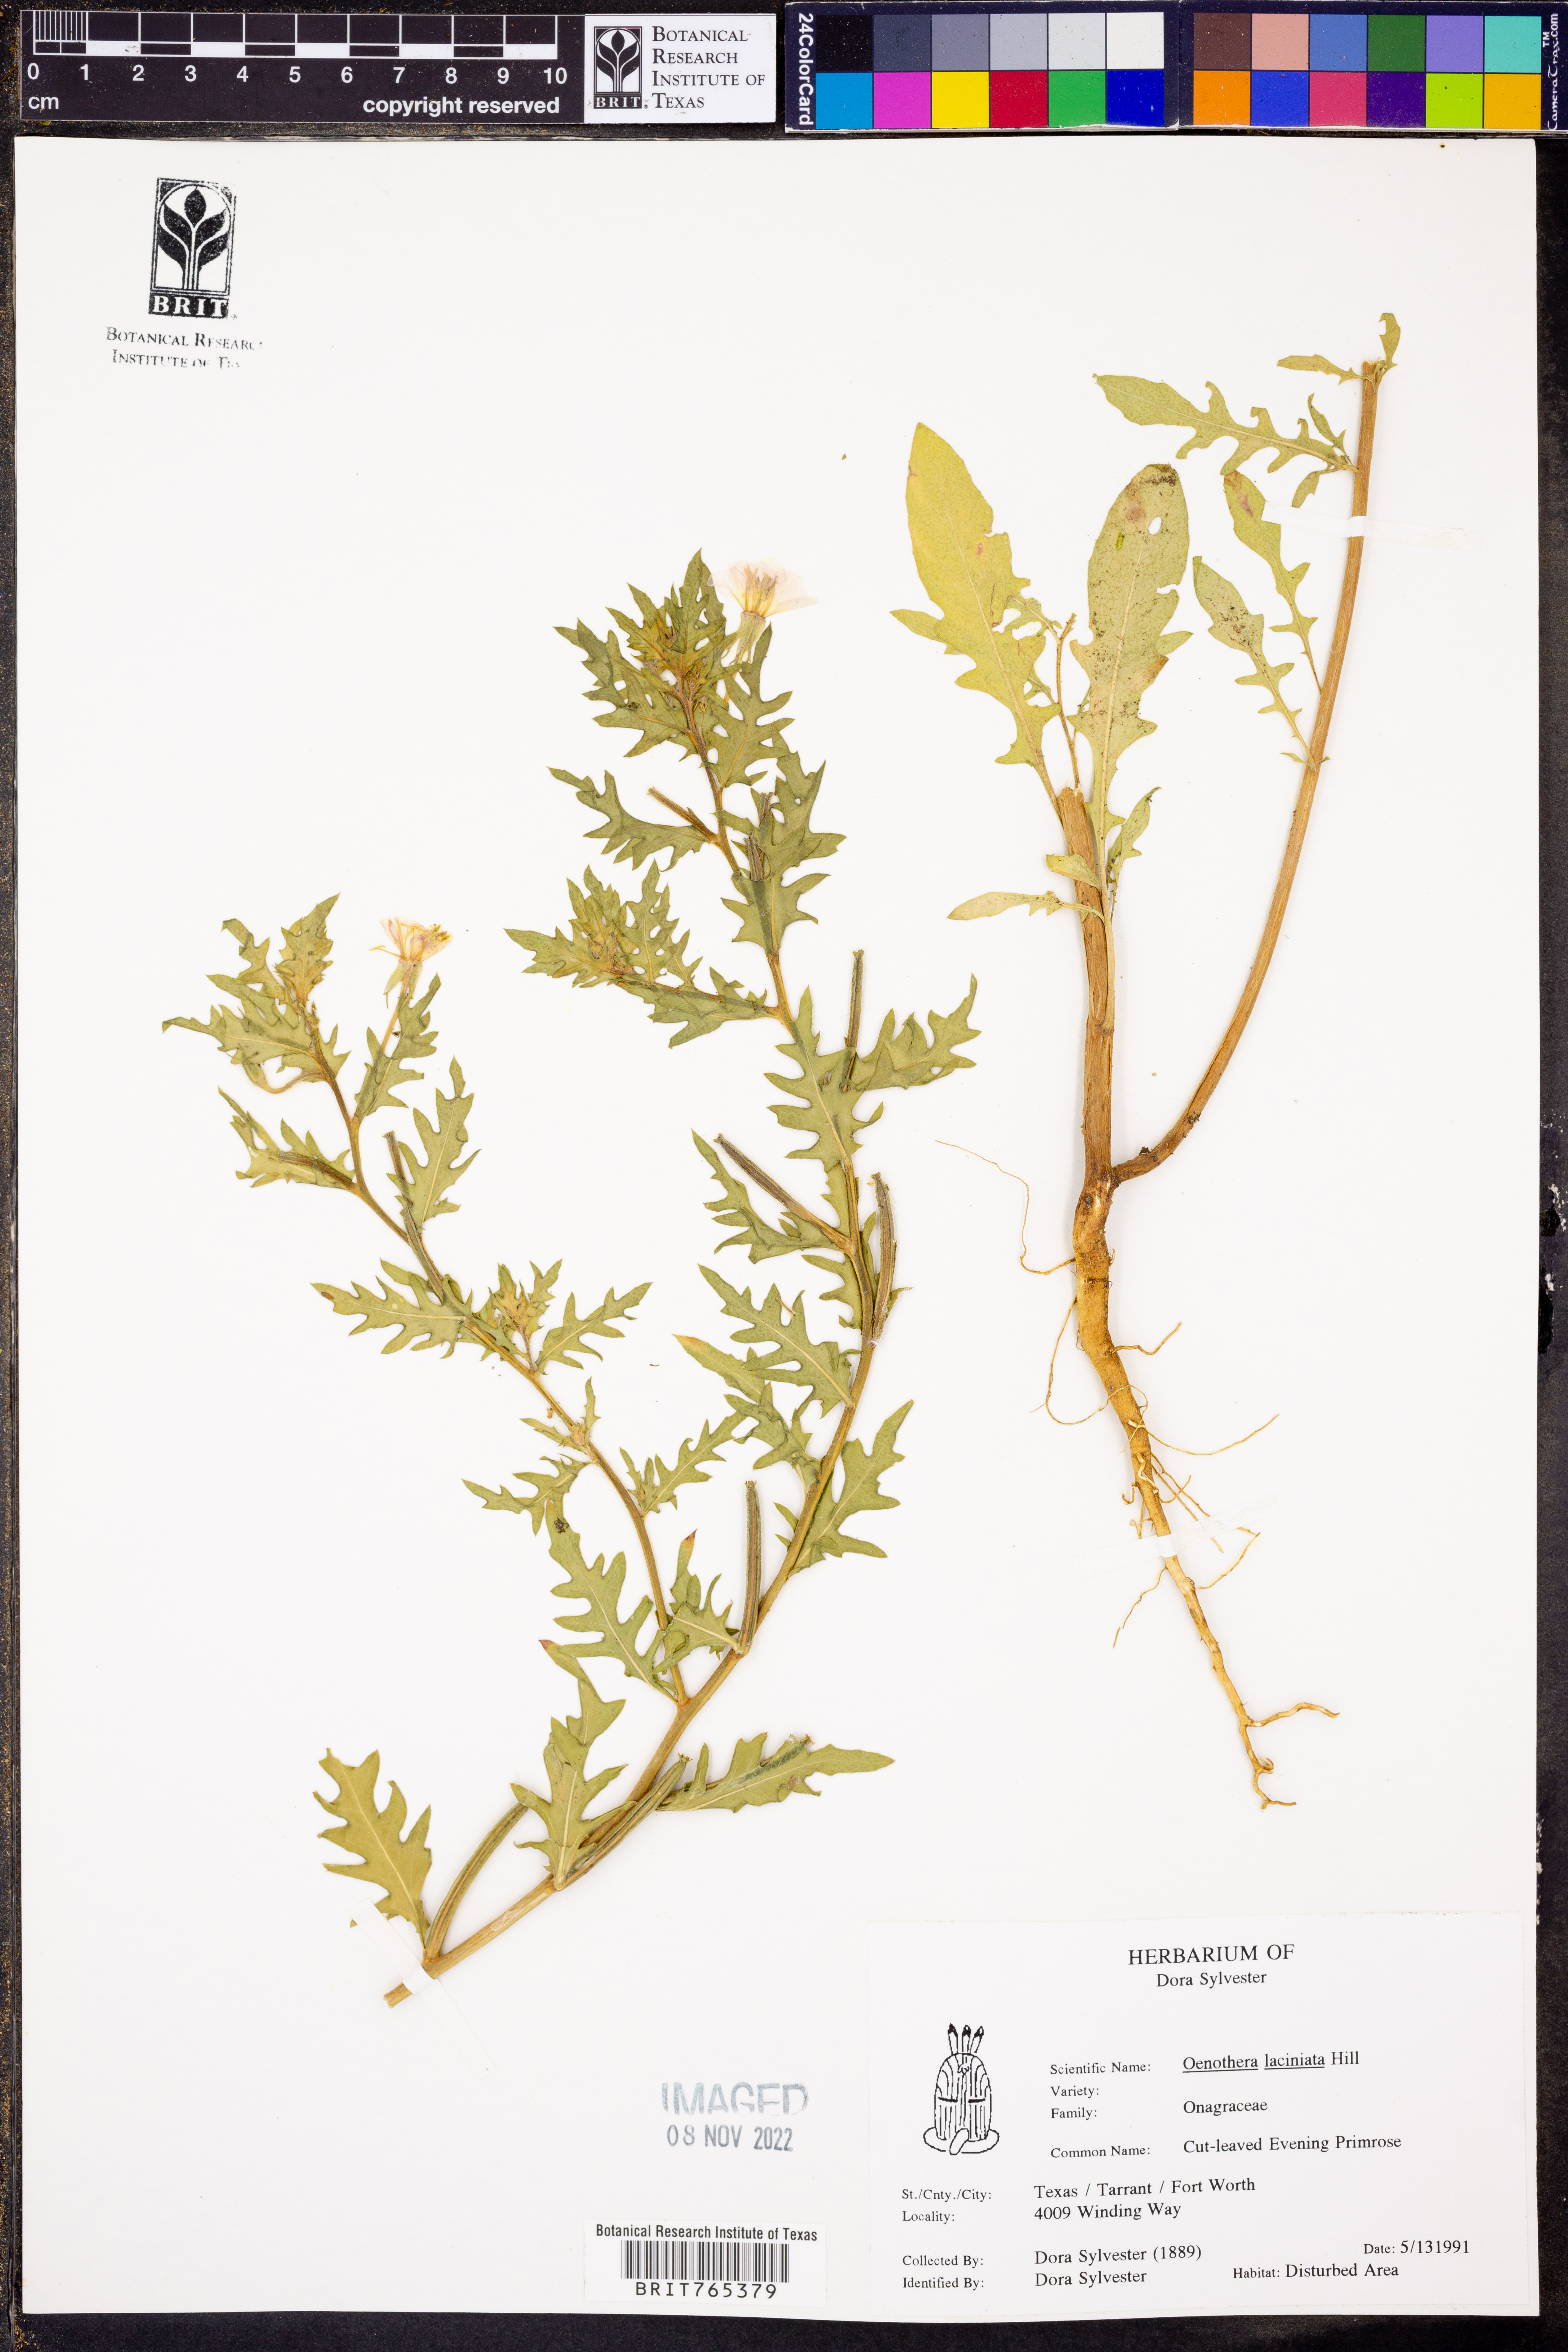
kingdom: Plantae
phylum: Tracheophyta
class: Magnoliopsida
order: Myrtales
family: Onagraceae
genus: Oenothera
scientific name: Oenothera laciniata
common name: Cut-leaved evening-primrose
